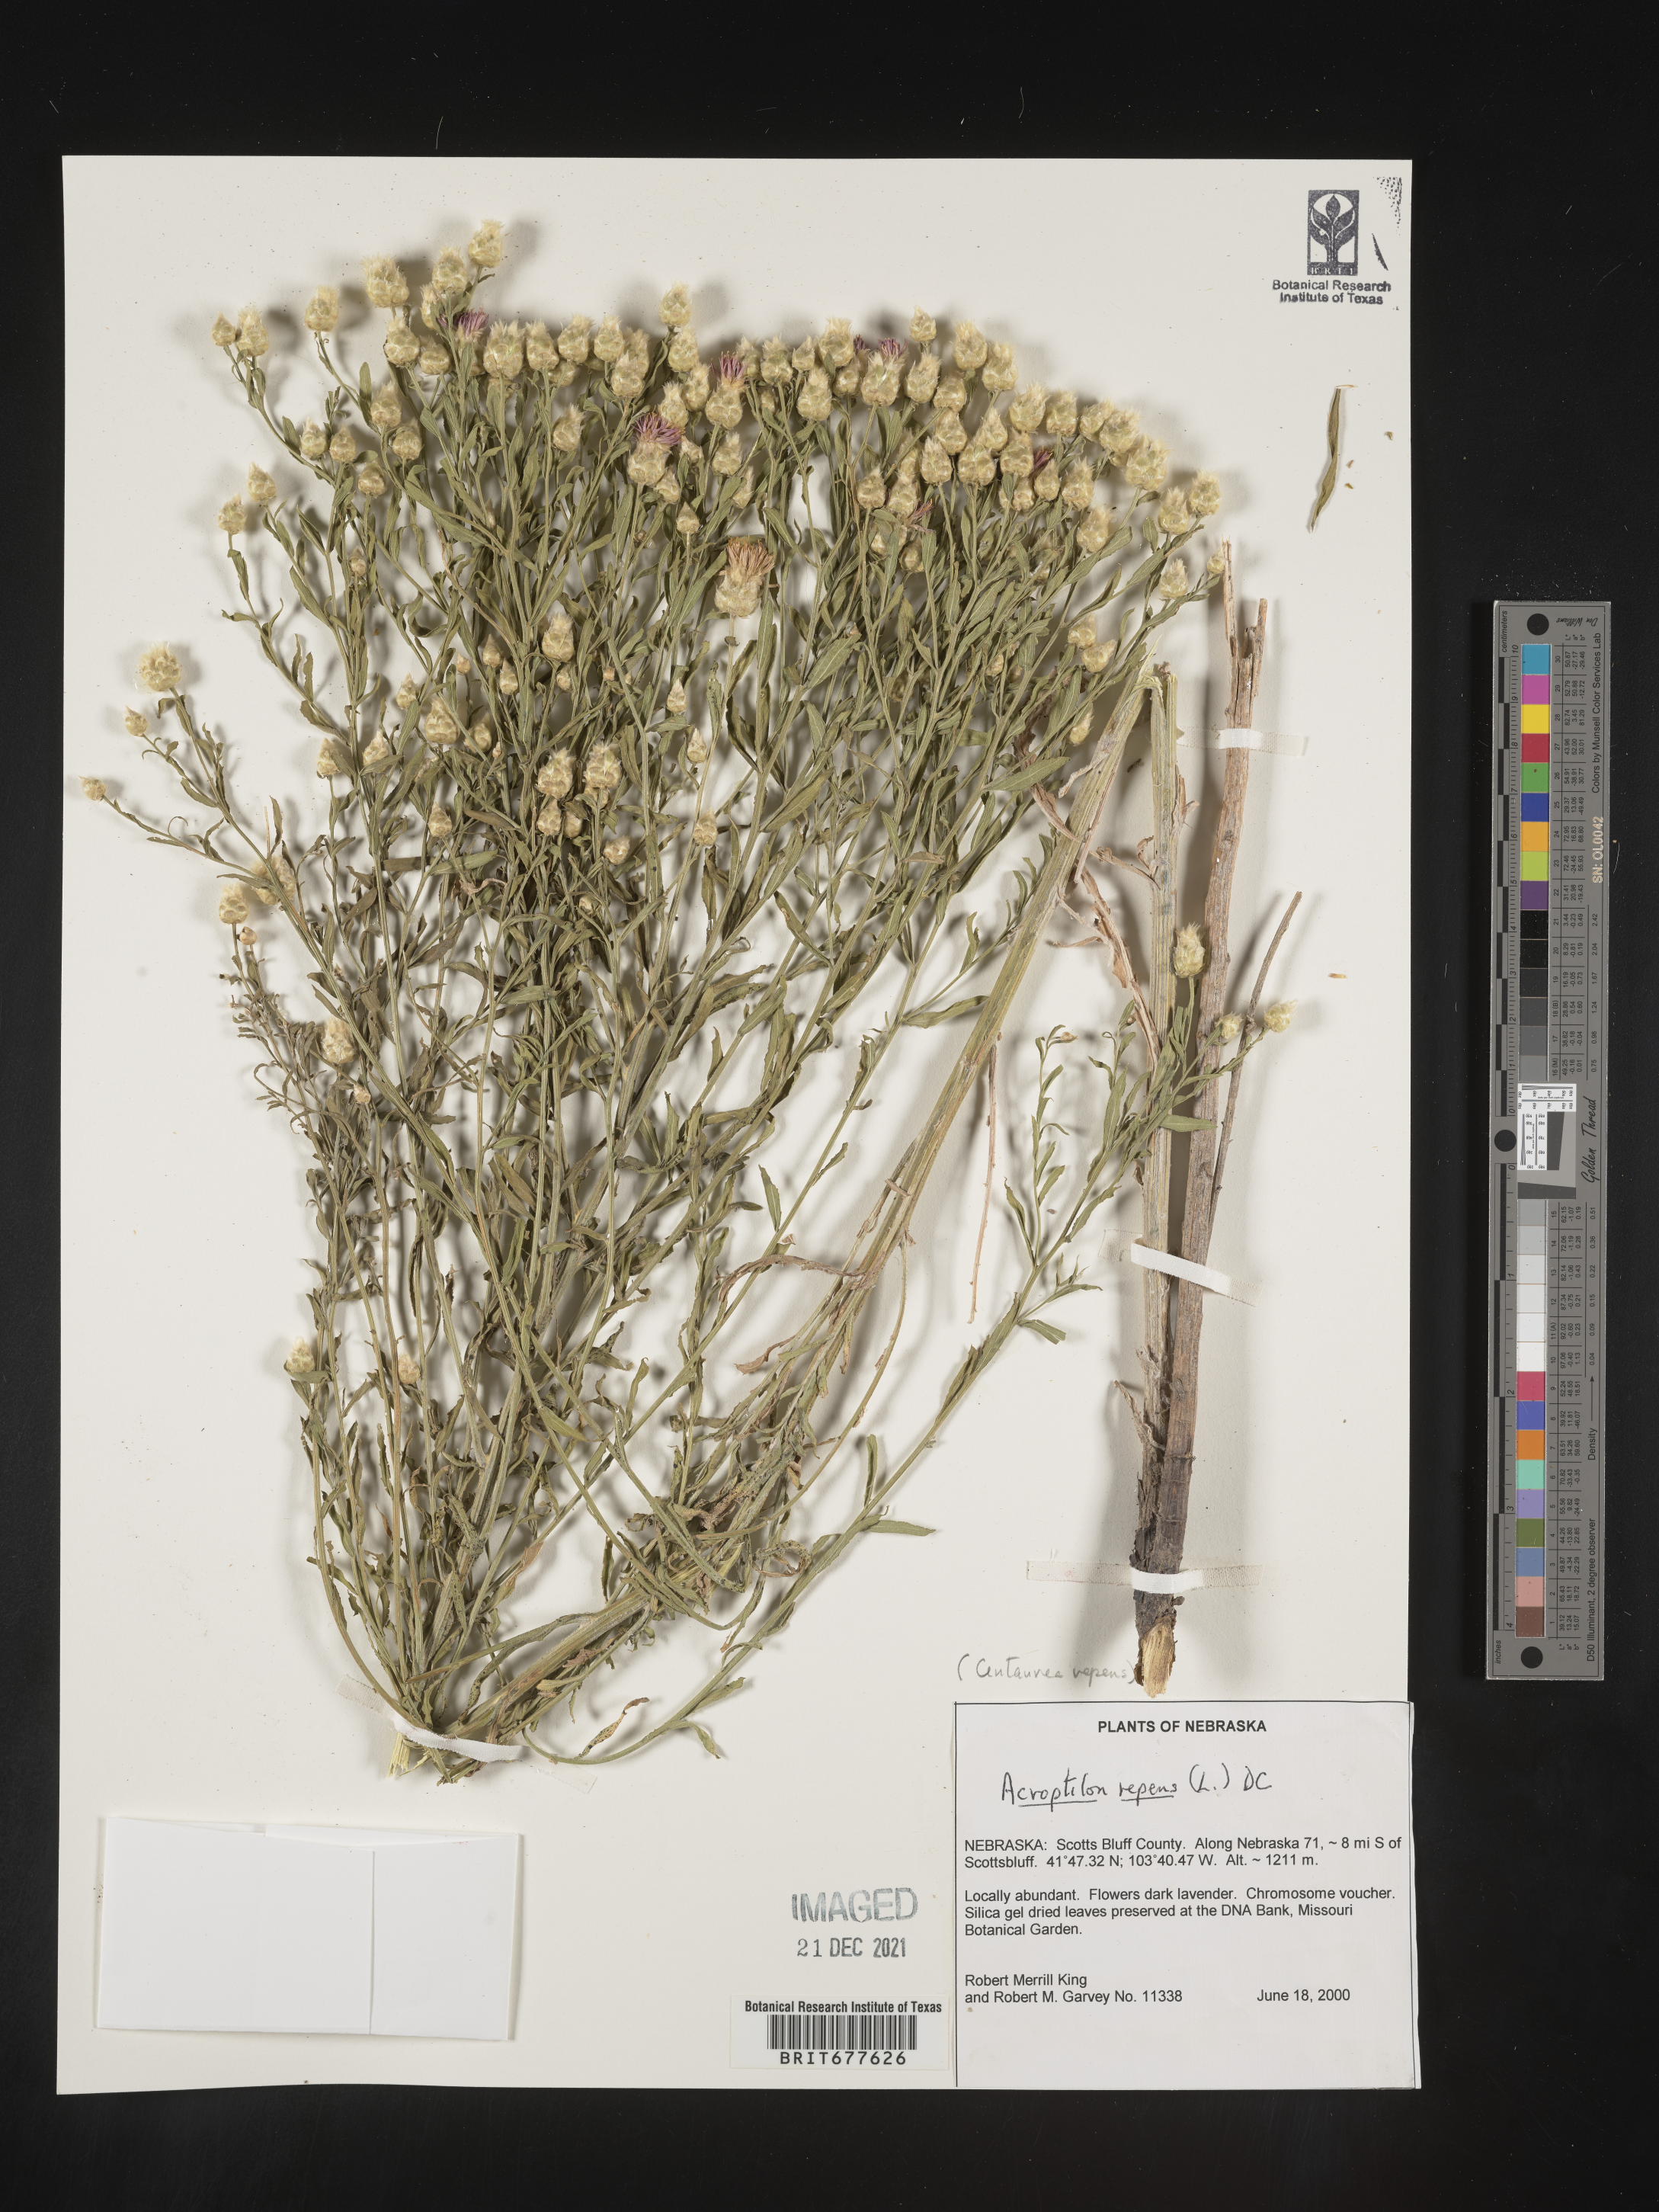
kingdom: Plantae
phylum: Tracheophyta
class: Magnoliopsida
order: Asterales
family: Asteraceae
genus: Leuzea
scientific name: Leuzea repens
